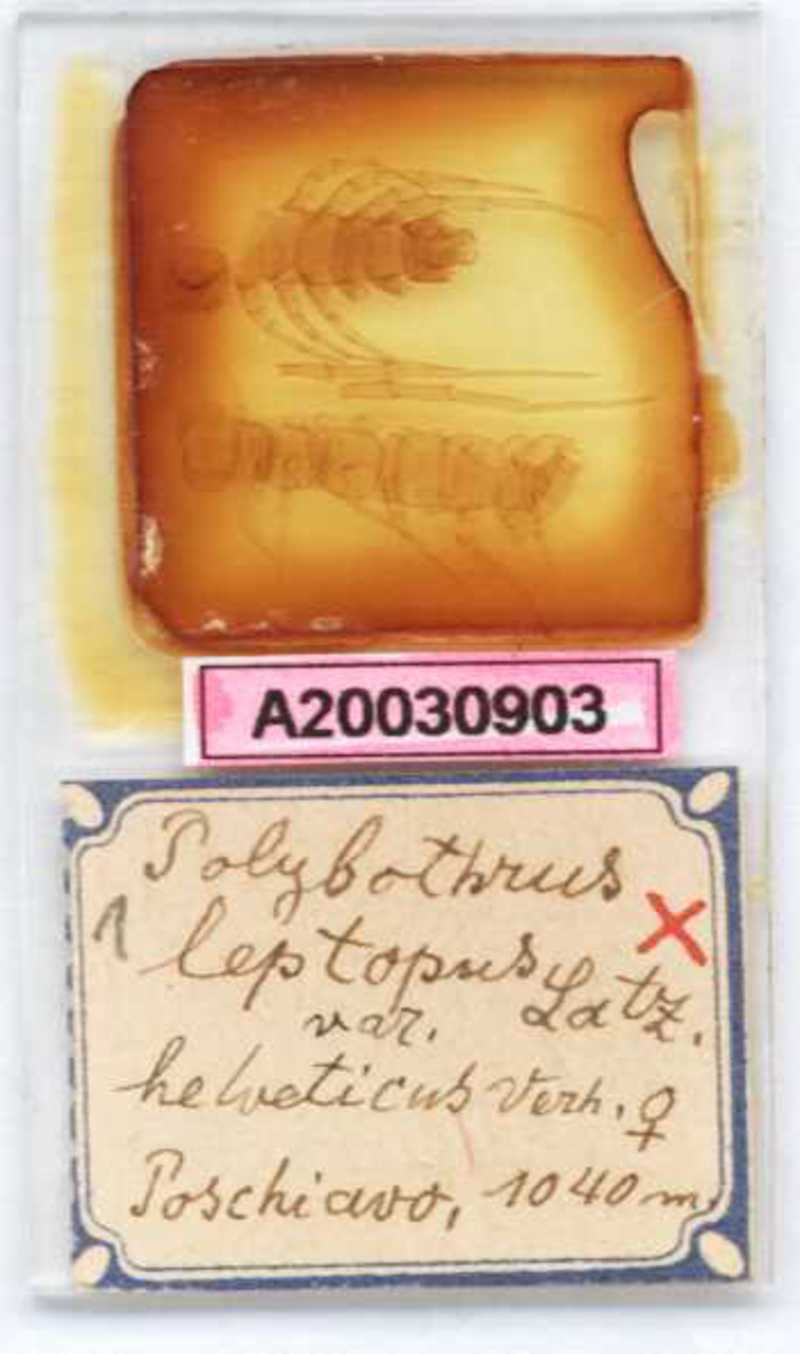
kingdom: Animalia
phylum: Arthropoda
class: Chilopoda
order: Lithobiomorpha
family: Lithobiidae
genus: Polybothrus
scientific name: Polybothrus leptopus
